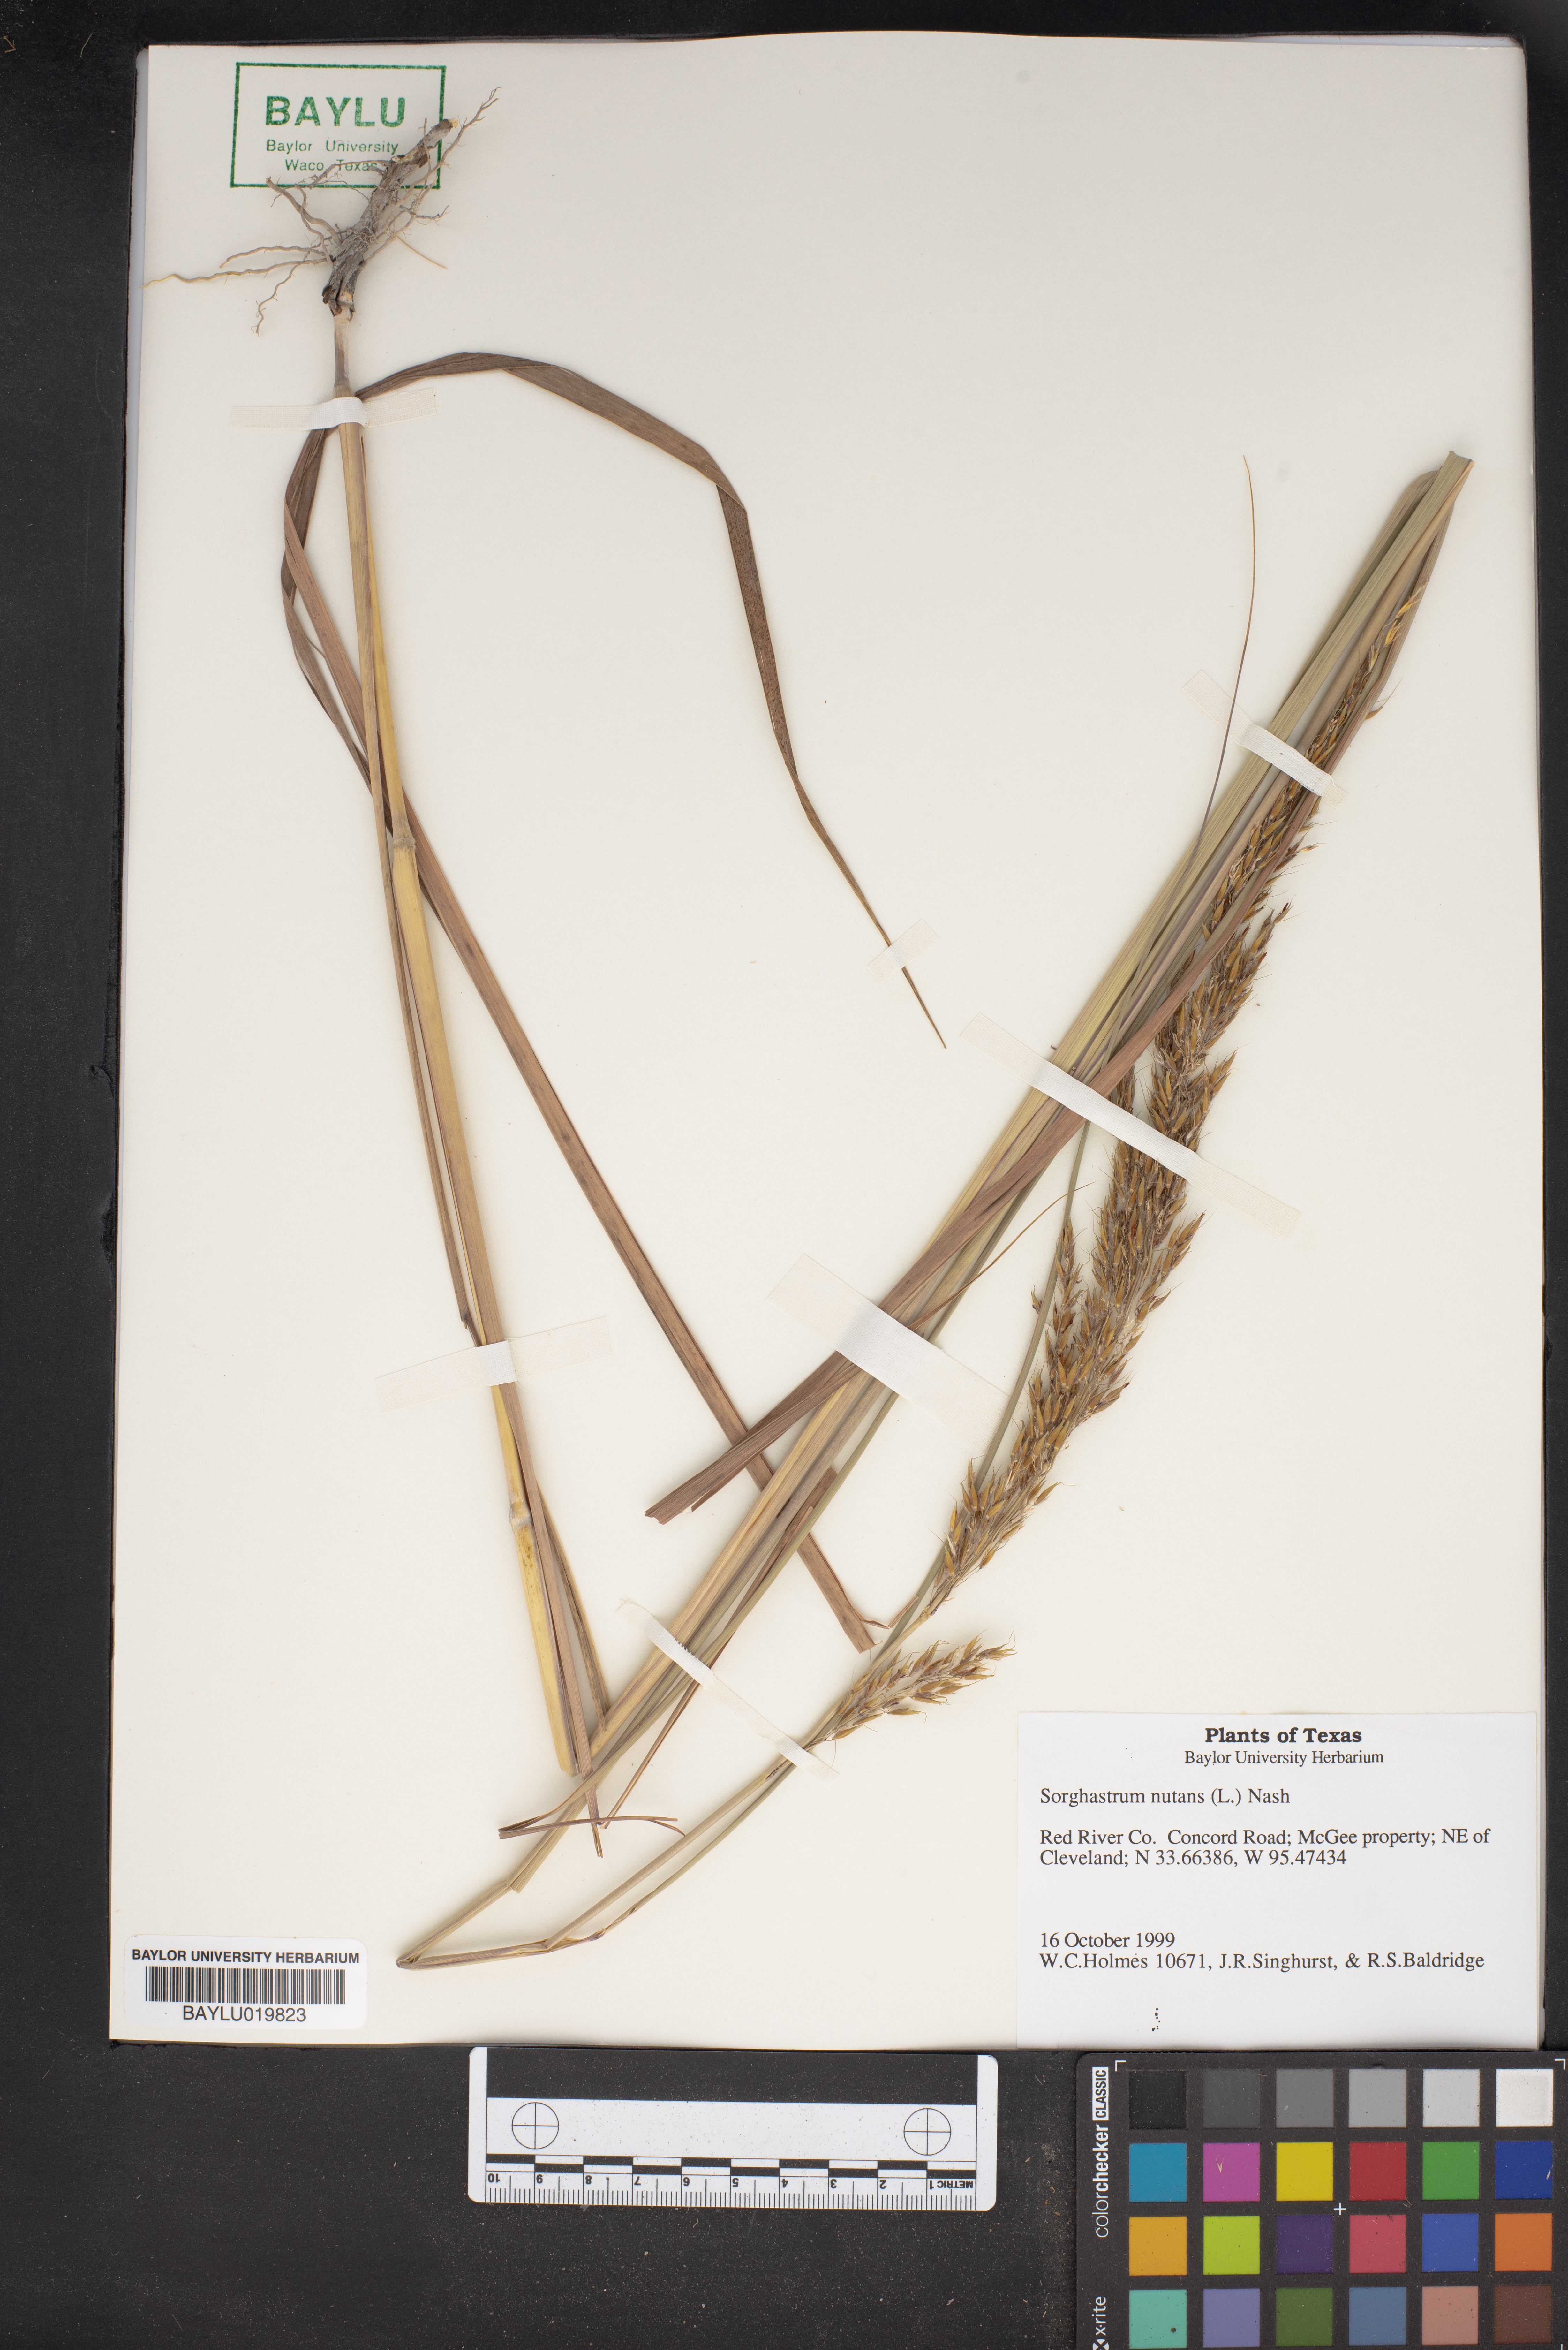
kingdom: Plantae
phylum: Tracheophyta
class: Liliopsida
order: Poales
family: Poaceae
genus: Sorghastrum
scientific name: Sorghastrum nutans
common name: Indian grass
